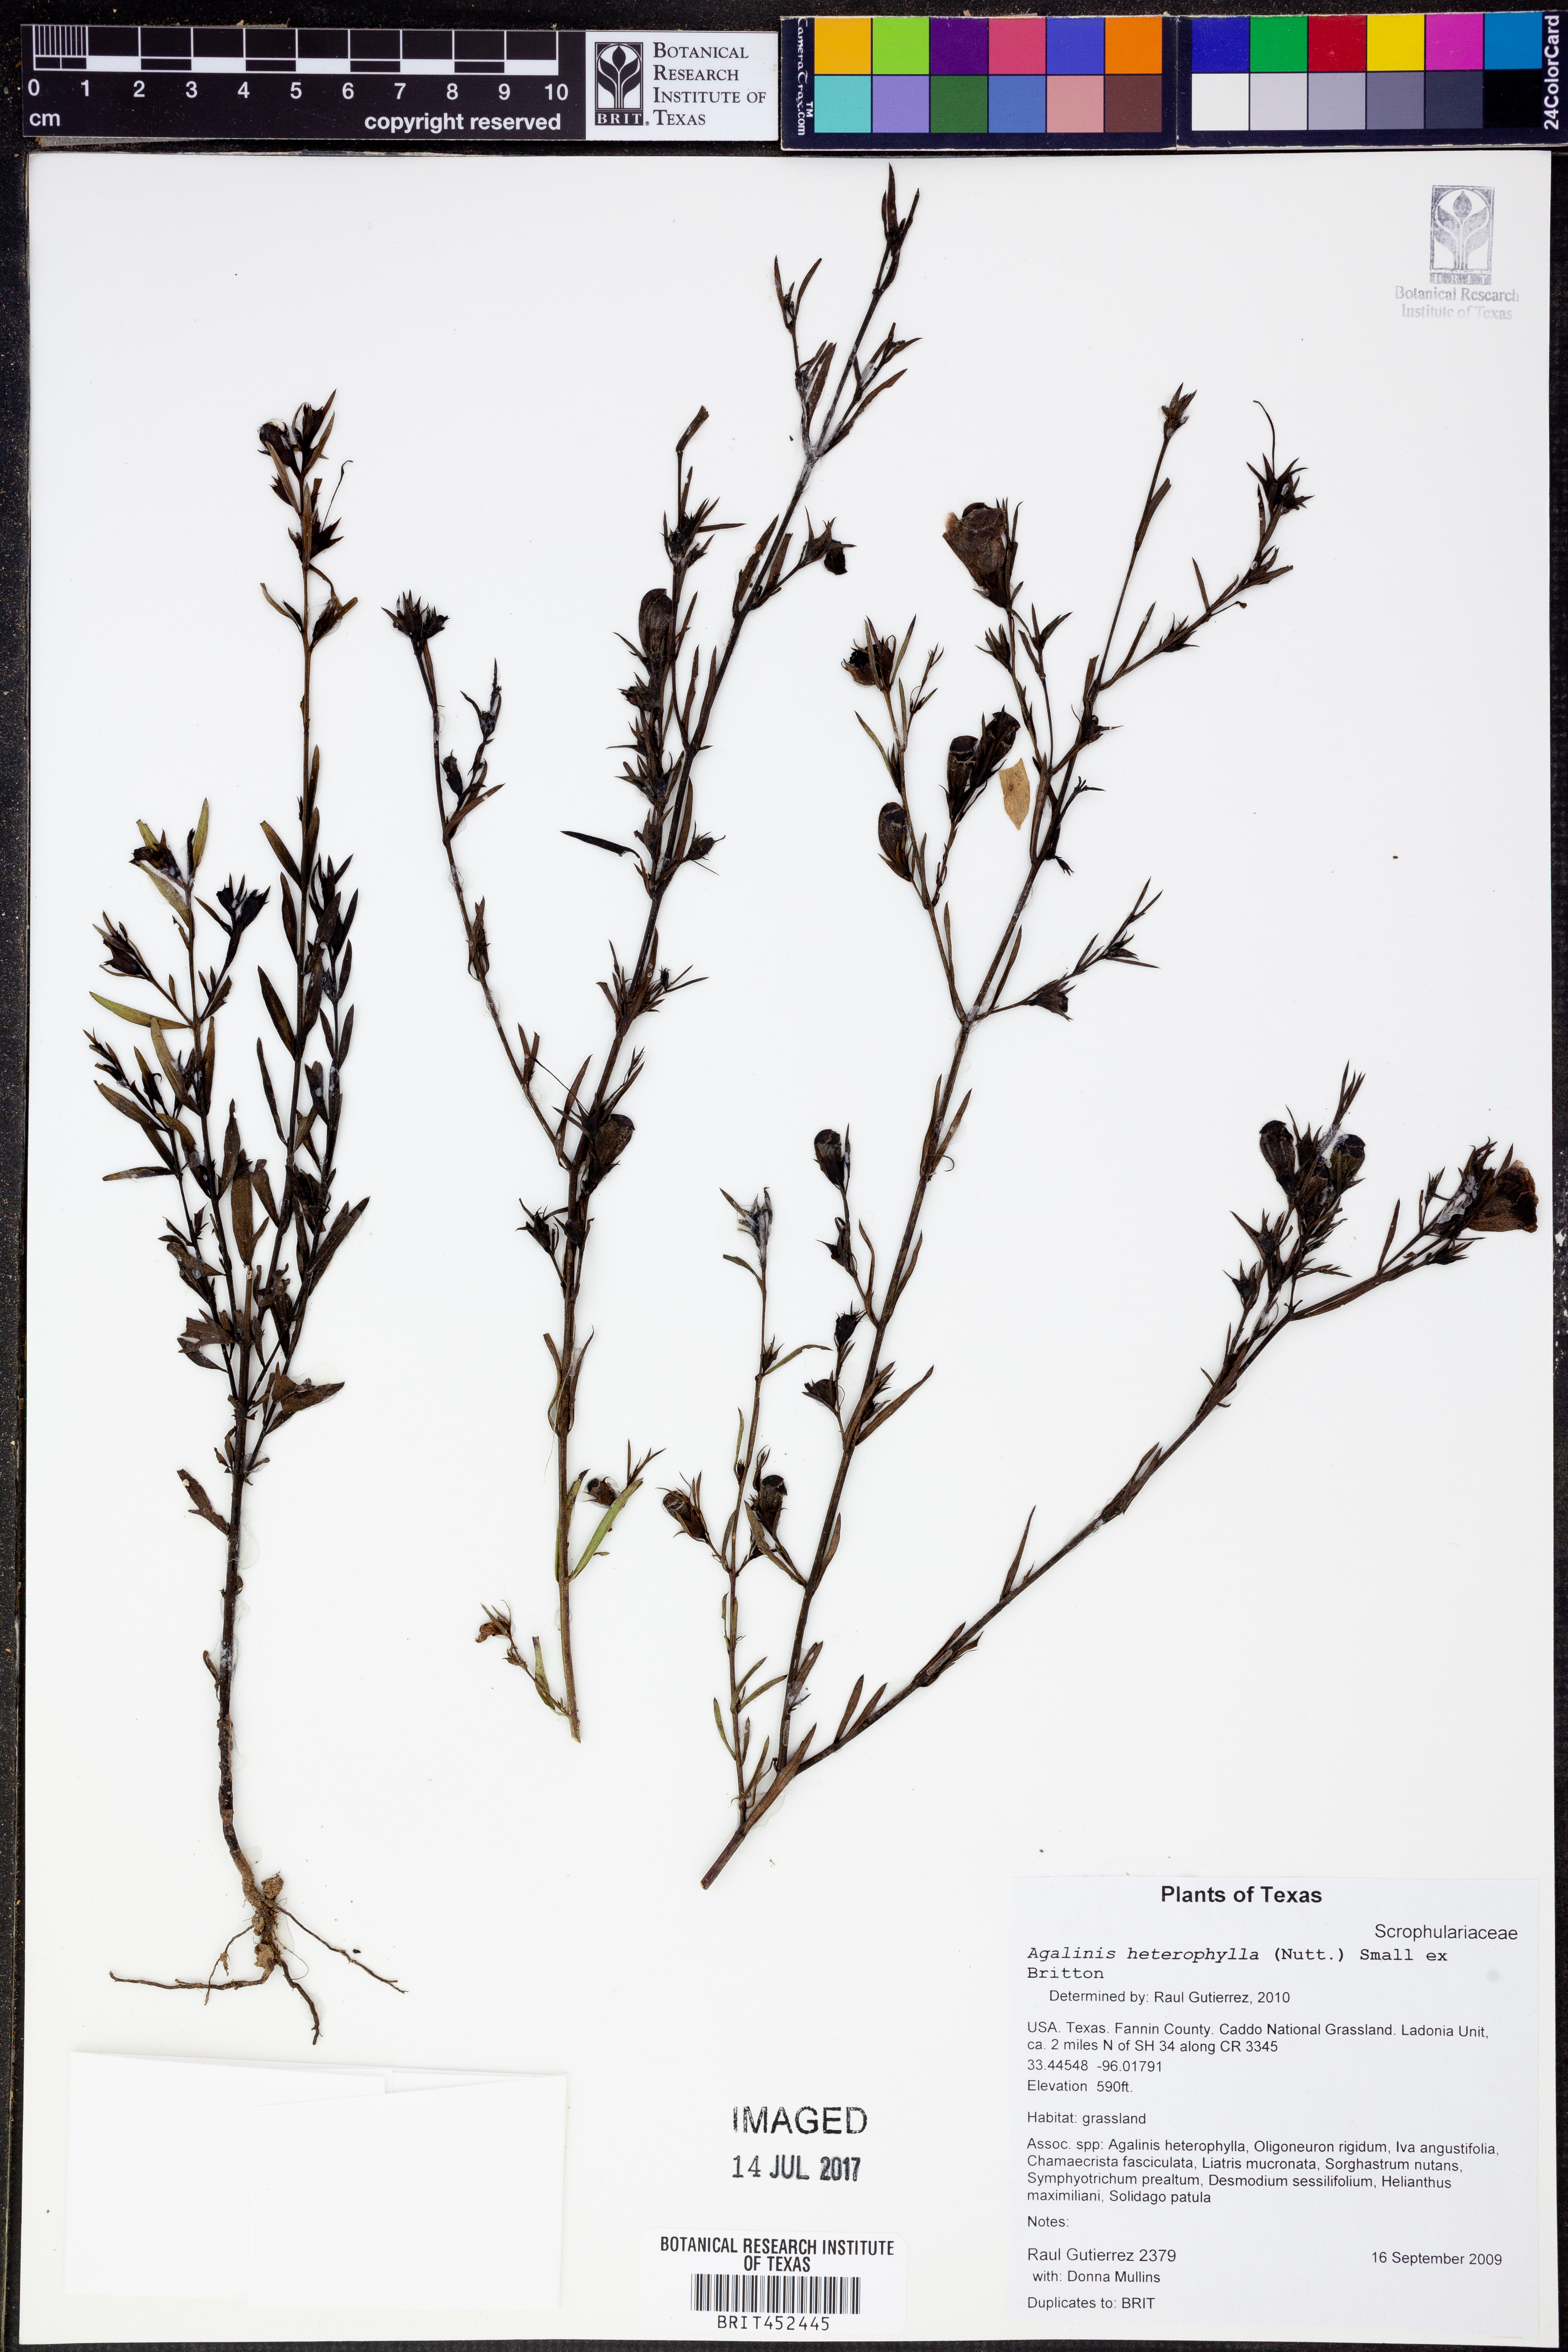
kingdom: Plantae
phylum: Tracheophyta
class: Magnoliopsida
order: Lamiales
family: Orobanchaceae
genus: Agalinis
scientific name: Agalinis heterophylla
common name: Prairie agalinis
